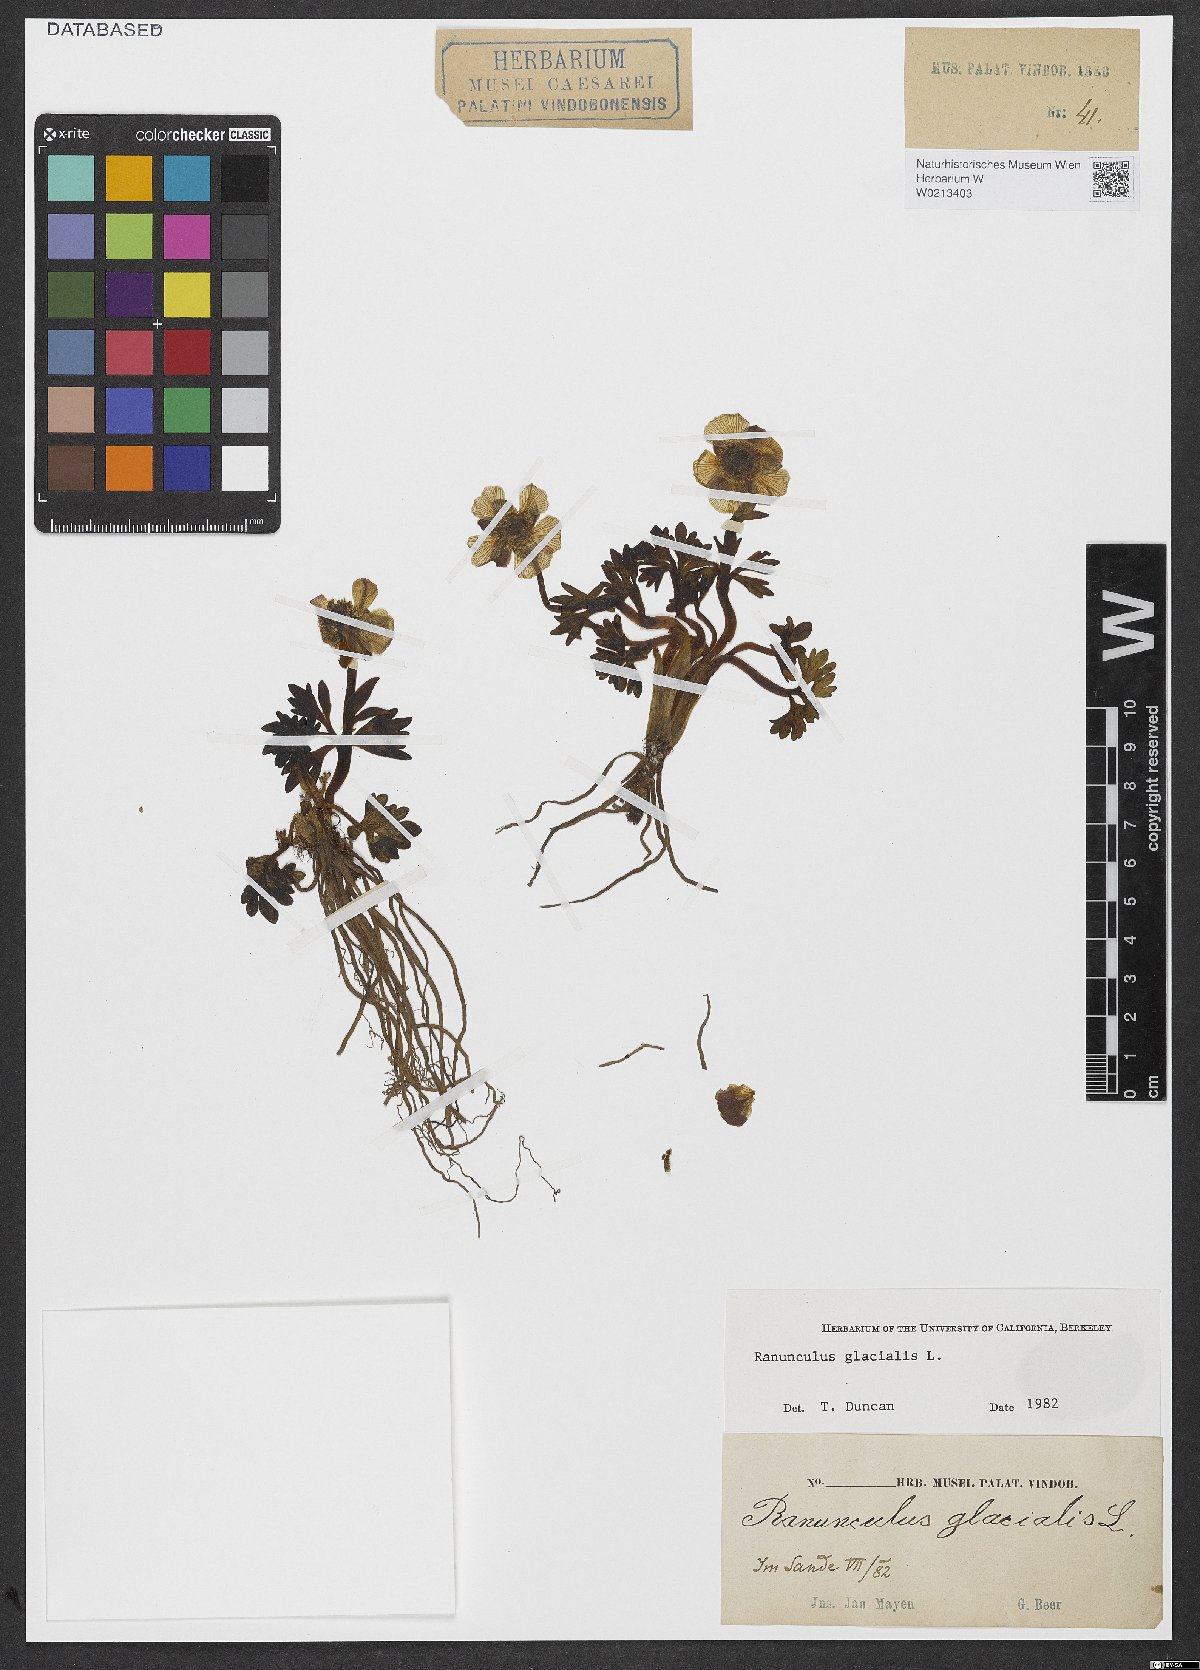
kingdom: Plantae
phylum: Tracheophyta
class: Magnoliopsida
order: Ranunculales
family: Ranunculaceae
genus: Ranunculus
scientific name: Ranunculus glacialis
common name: Glacier buttercup
